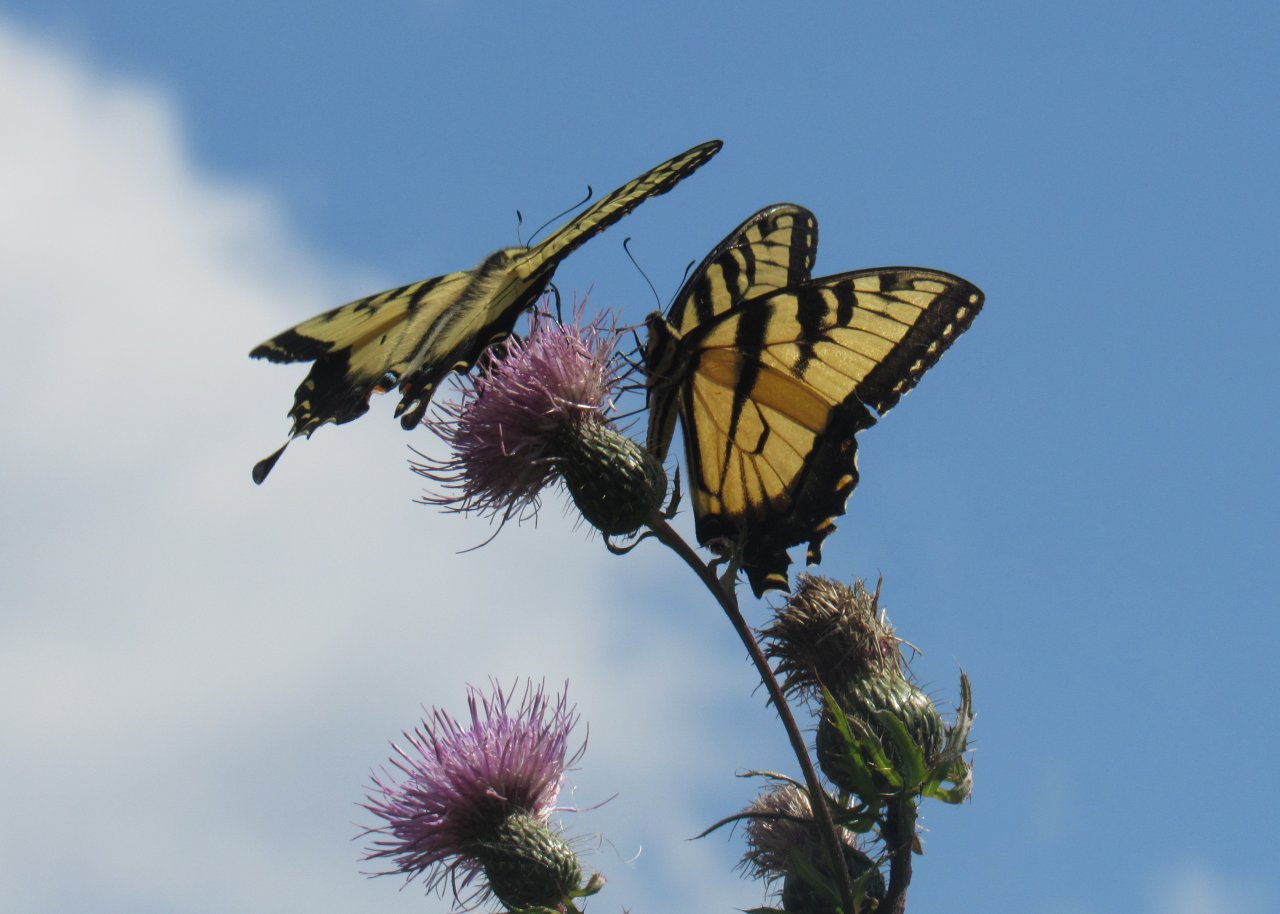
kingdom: Animalia
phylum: Arthropoda
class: Insecta
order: Lepidoptera
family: Papilionidae
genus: Pterourus
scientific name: Pterourus glaucus
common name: Eastern Tiger Swallowtail
